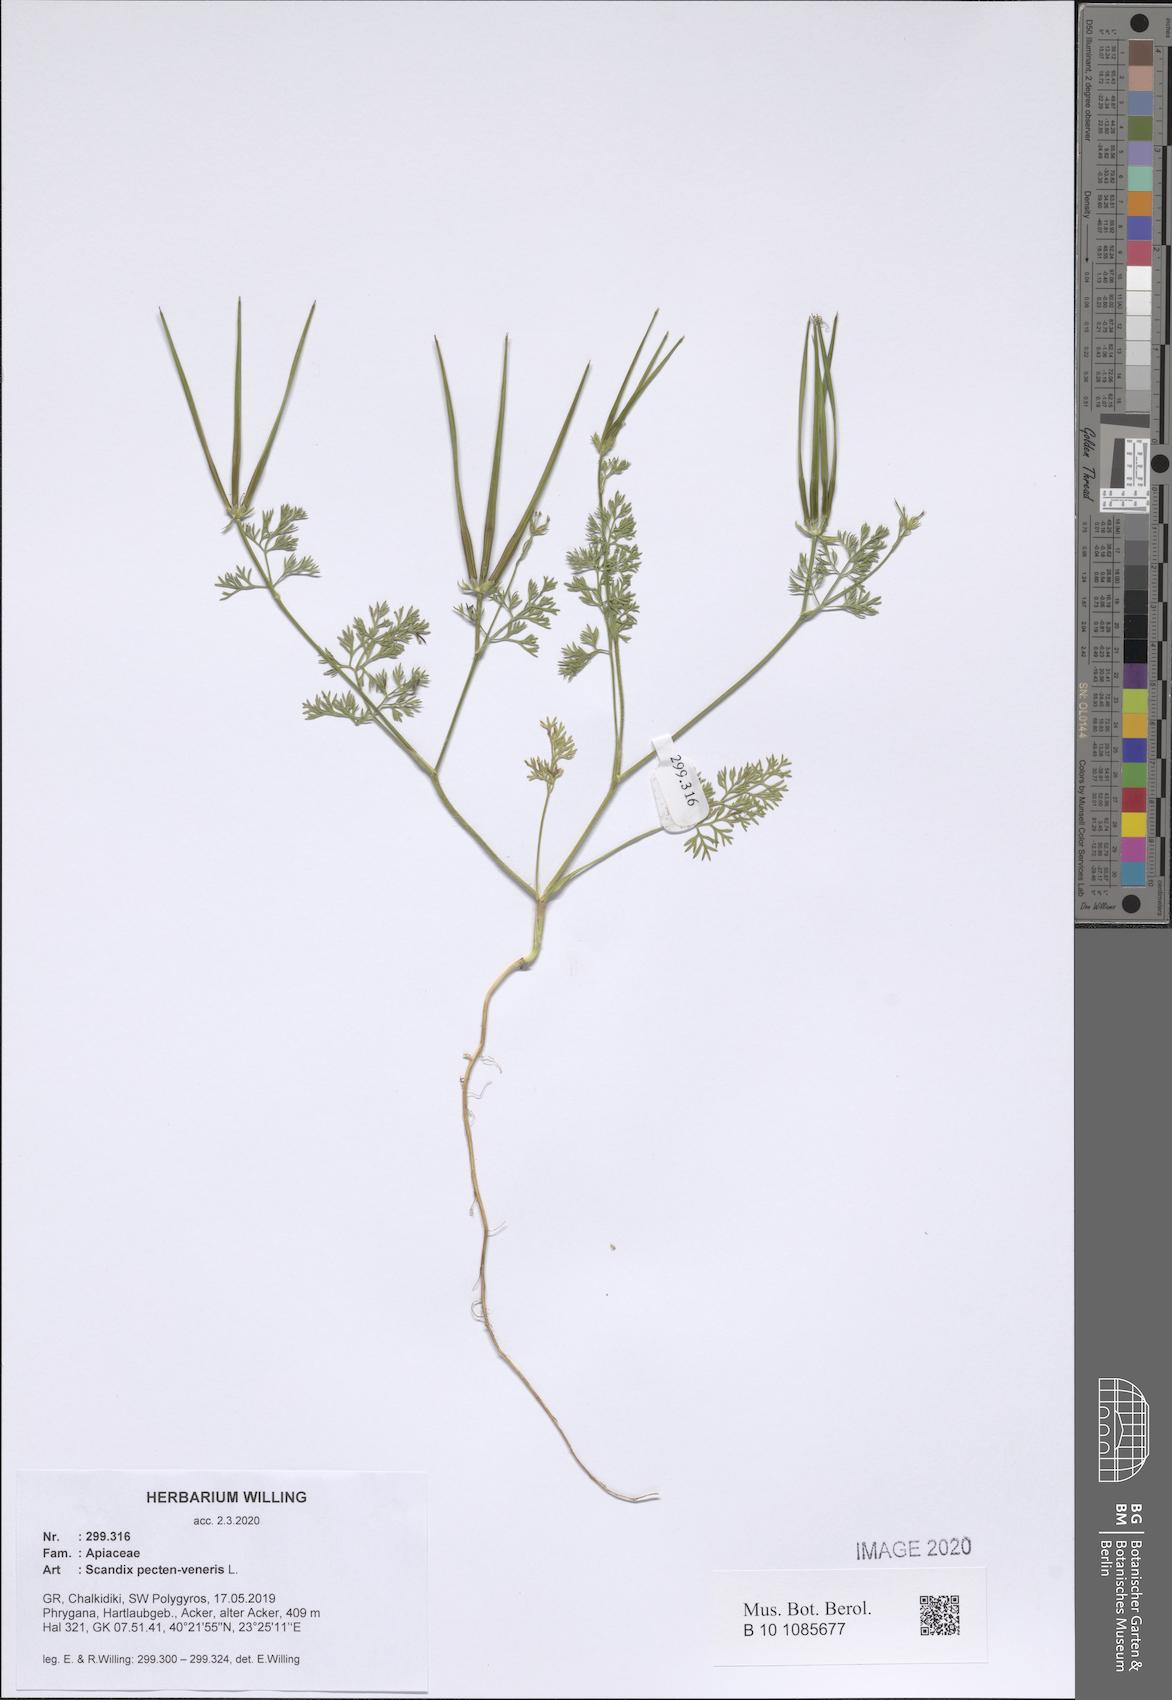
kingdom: Plantae
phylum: Tracheophyta
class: Magnoliopsida
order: Apiales
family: Apiaceae
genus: Scandix
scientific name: Scandix pecten-veneris
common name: Shepherd's-needle
